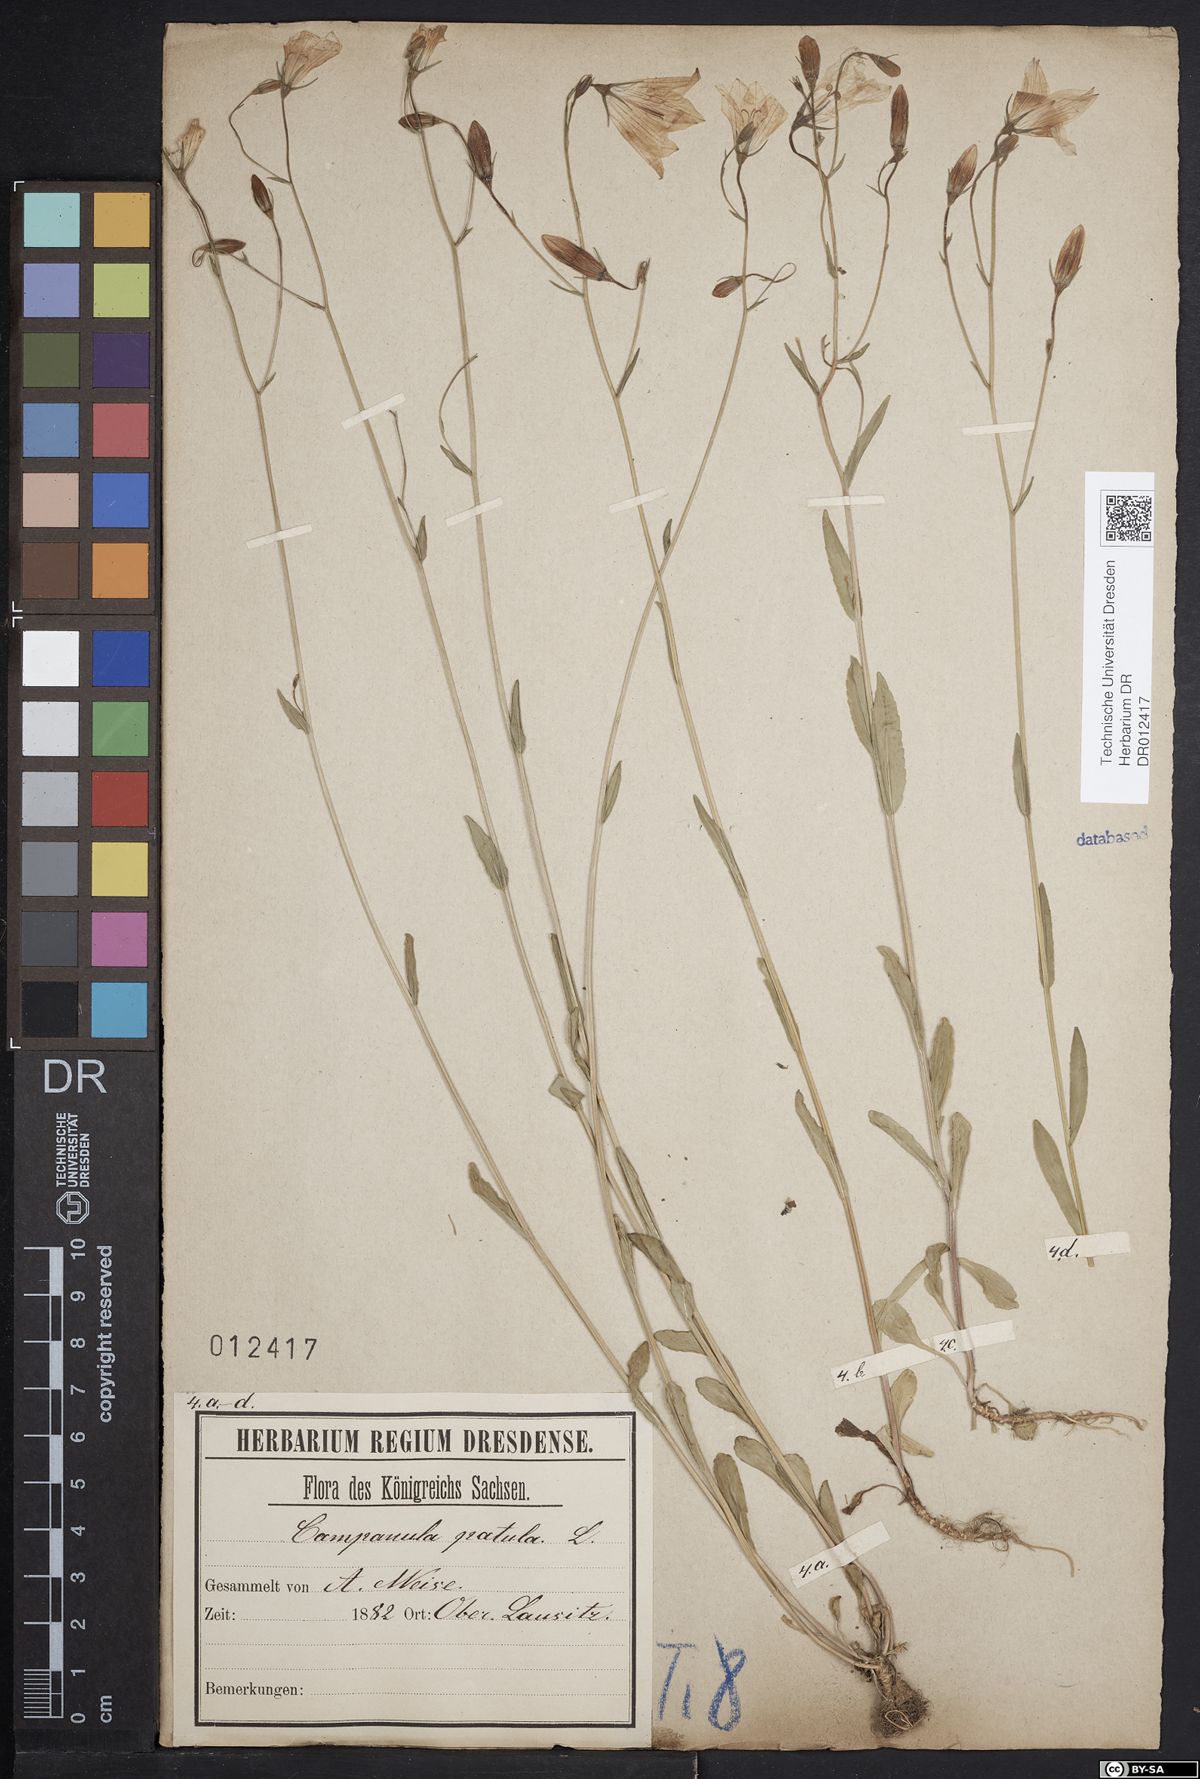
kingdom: Plantae
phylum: Tracheophyta
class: Magnoliopsida
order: Asterales
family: Campanulaceae
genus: Campanula
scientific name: Campanula patula
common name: Spreading bellflower
